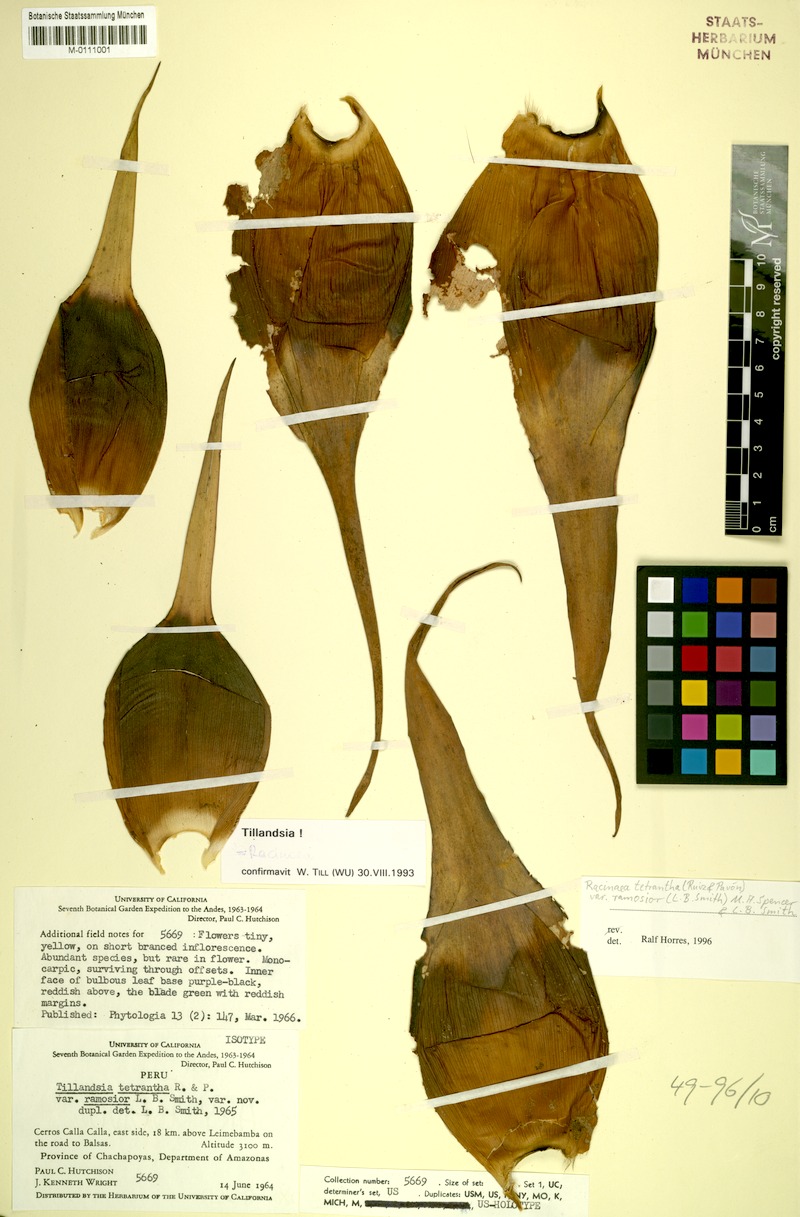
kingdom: Plantae
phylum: Tracheophyta
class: Liliopsida
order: Poales
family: Bromeliaceae
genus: Racinaea
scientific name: Racinaea tetrantha
